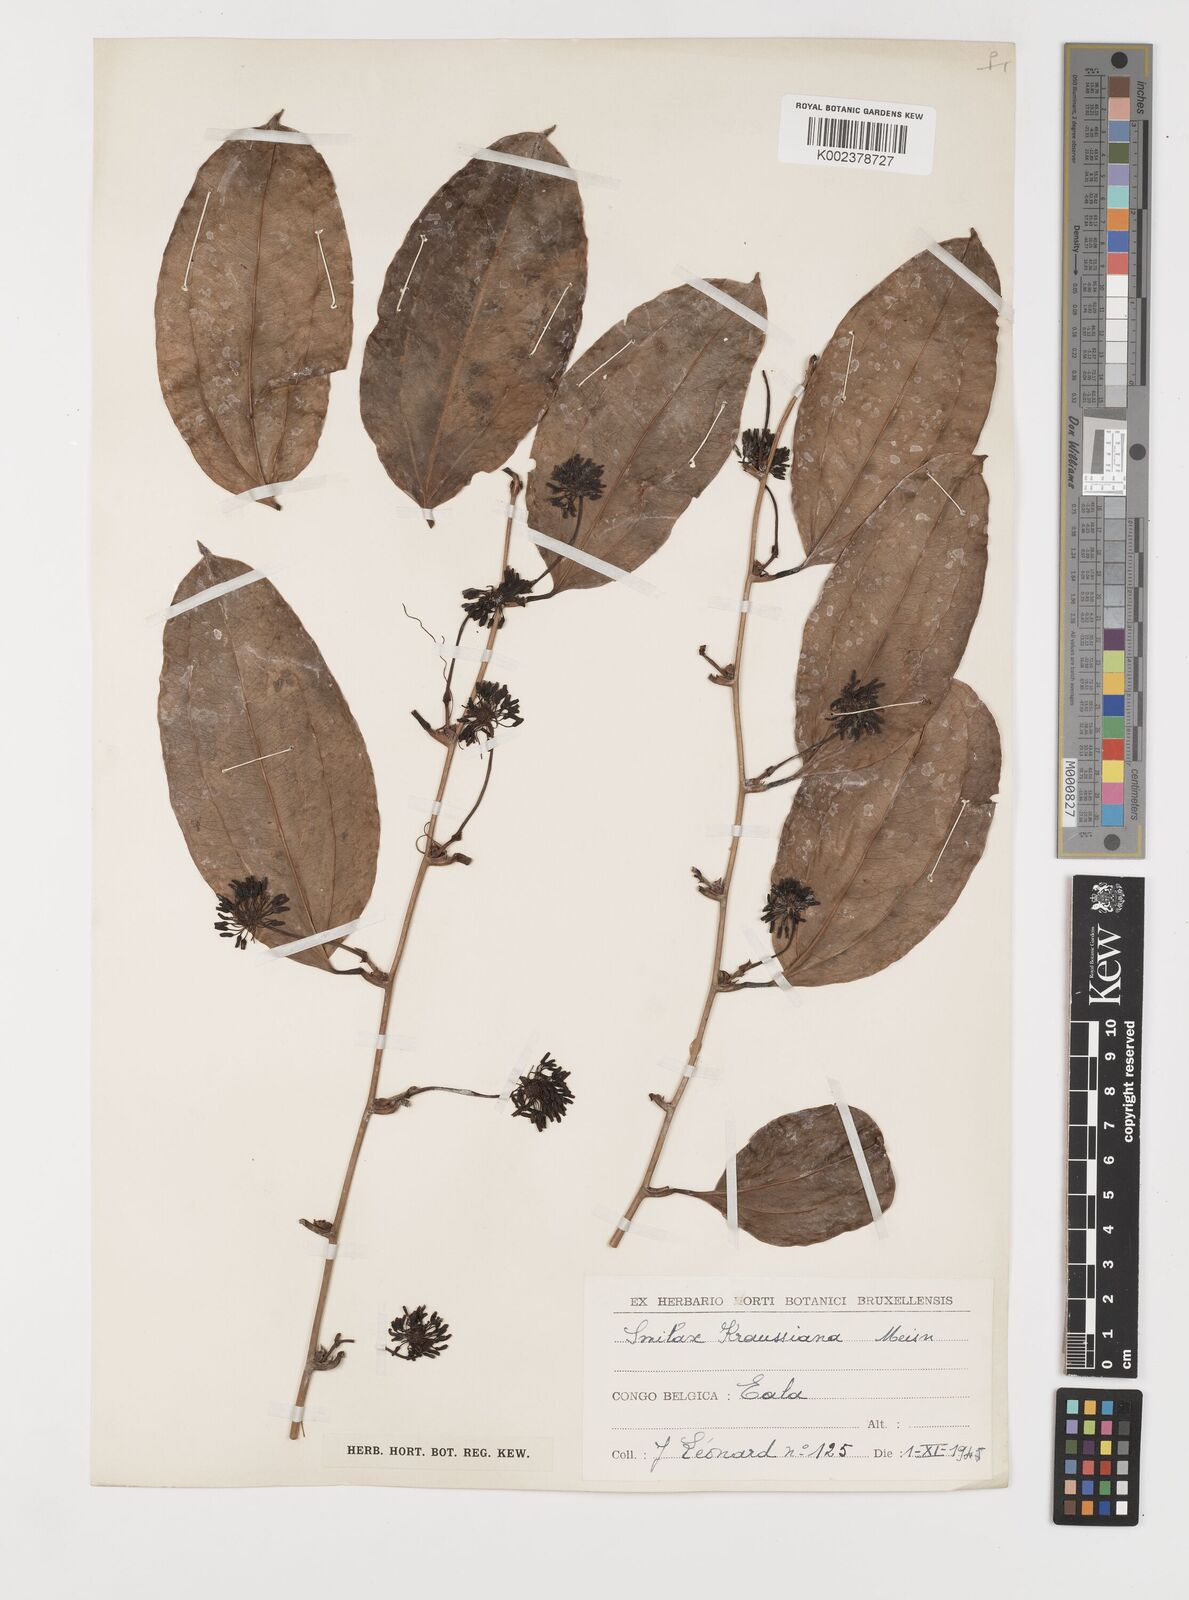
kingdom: Plantae
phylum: Tracheophyta
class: Liliopsida
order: Liliales
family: Smilacaceae
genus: Smilax
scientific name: Smilax anceps
